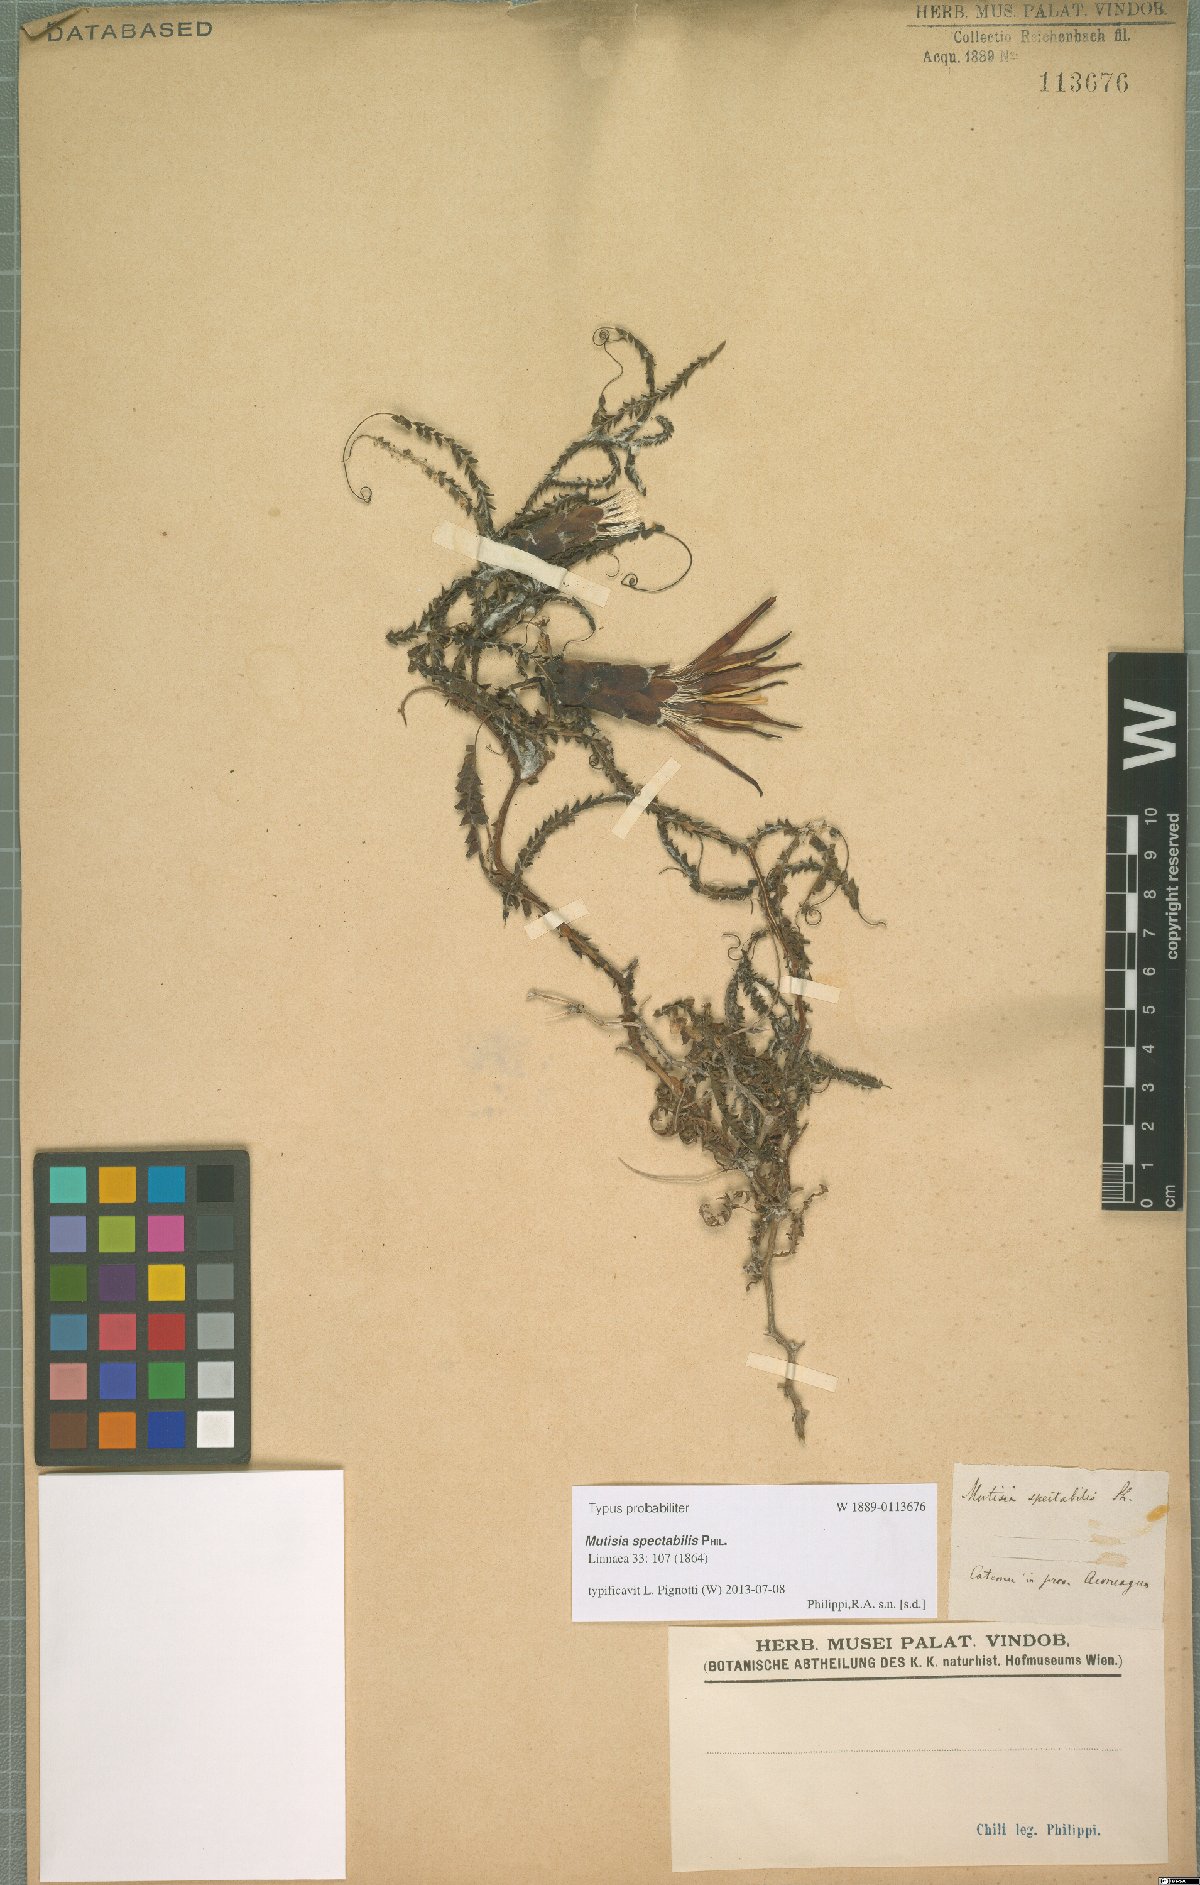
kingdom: Plantae
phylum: Tracheophyta
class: Magnoliopsida
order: Asterales
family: Asteraceae
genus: Mutisia
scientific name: Mutisia spectabilis
